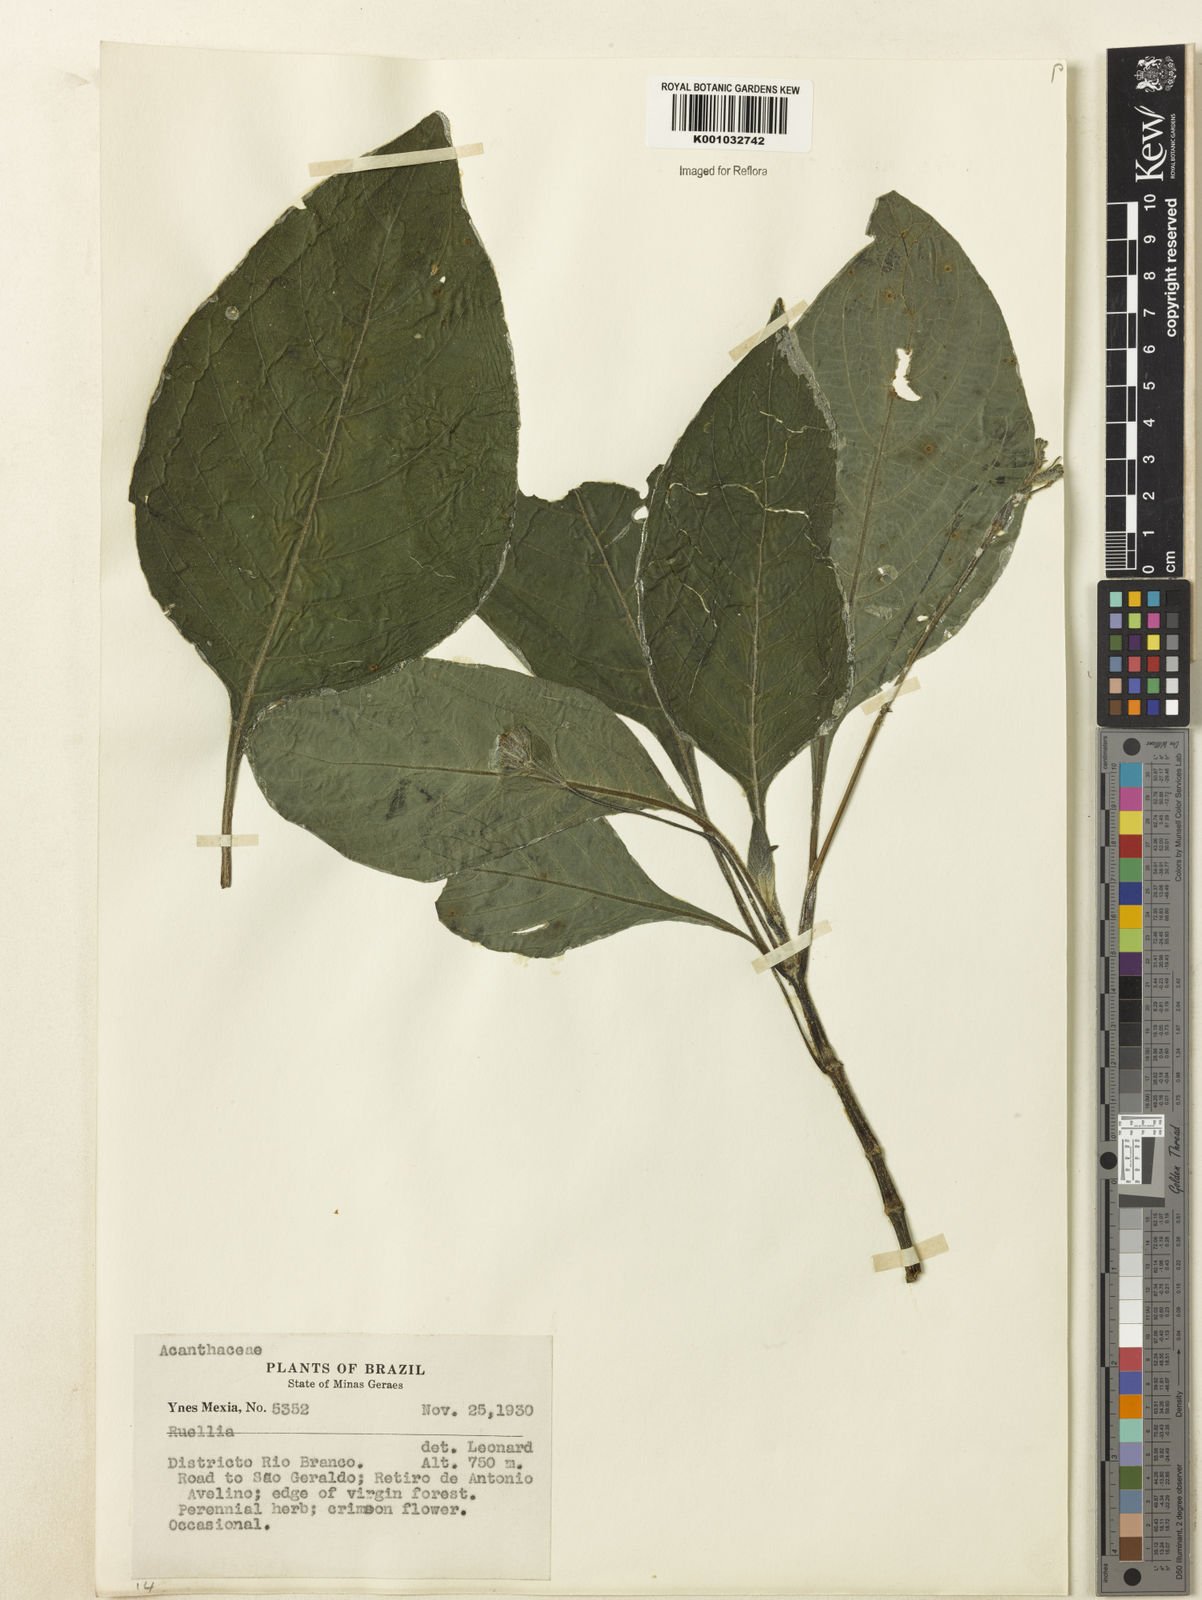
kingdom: Plantae
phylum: Tracheophyta
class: Magnoliopsida
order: Lamiales
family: Acanthaceae
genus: Ruellia
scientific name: Ruellia
